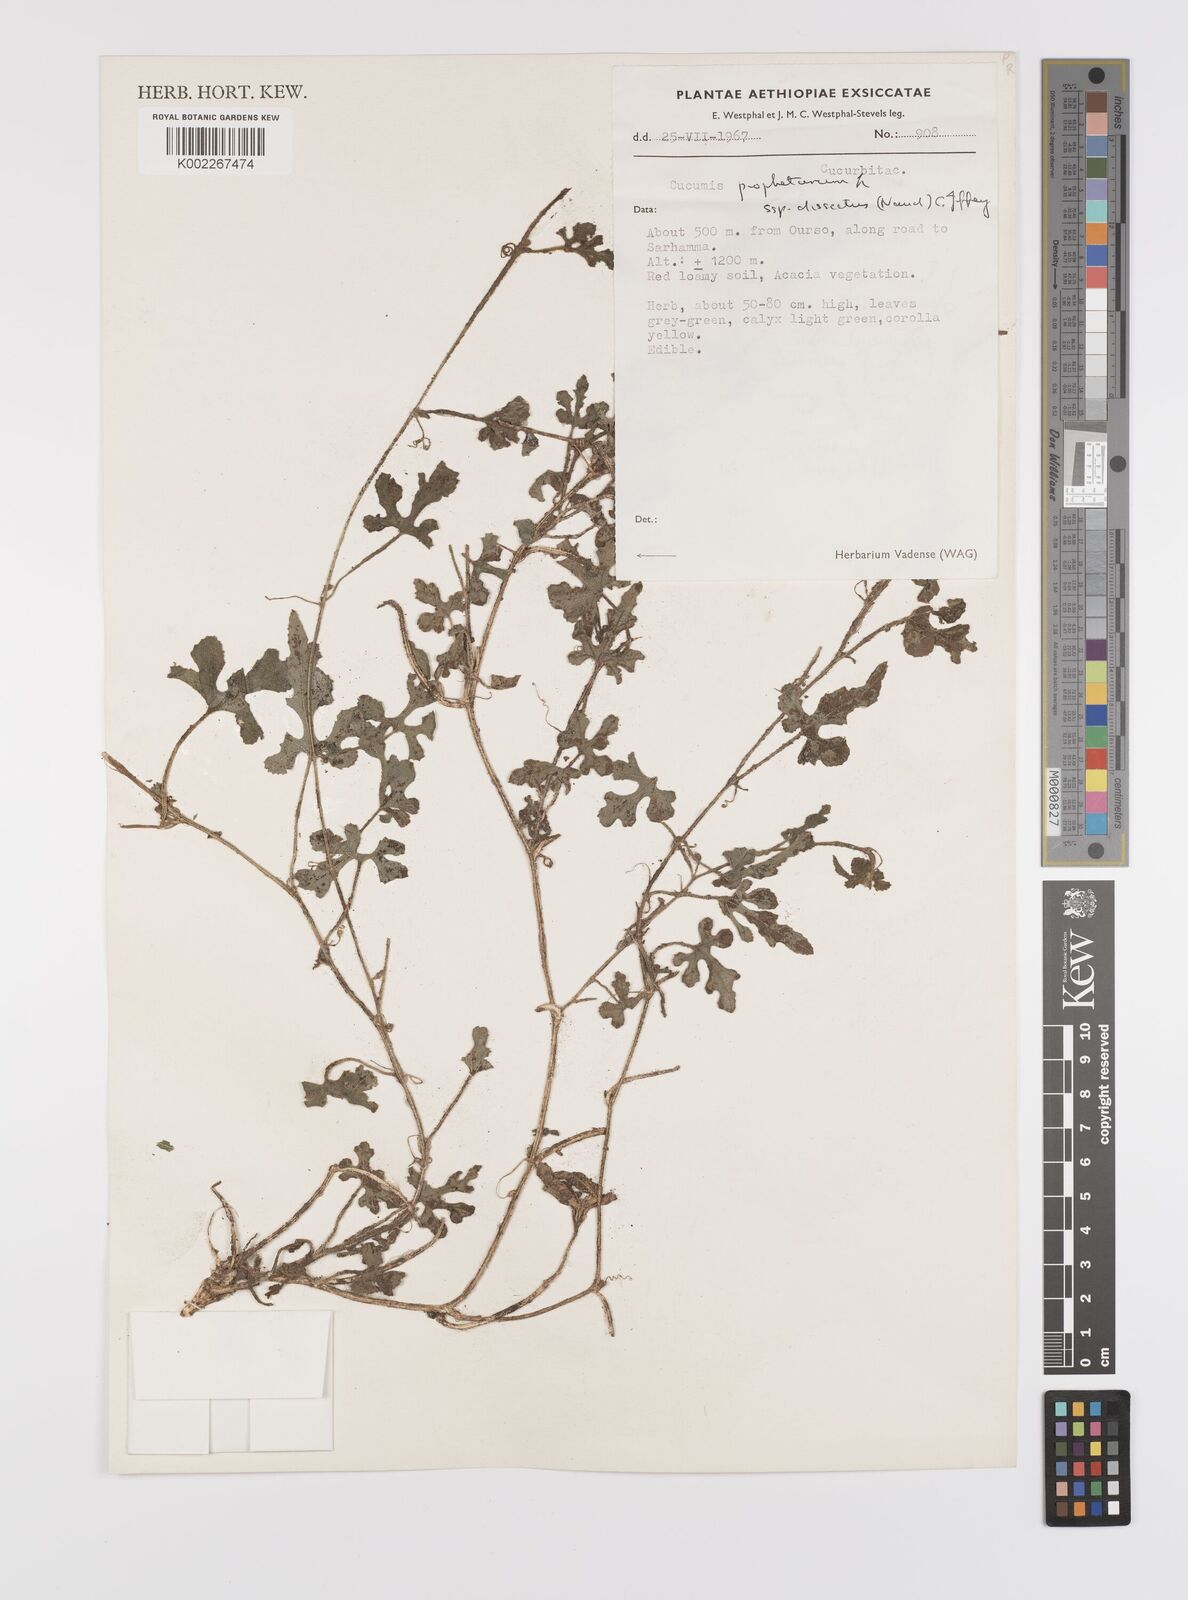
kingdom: Plantae
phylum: Tracheophyta
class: Magnoliopsida
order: Cucurbitales
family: Cucurbitaceae
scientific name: Cucurbitaceae
